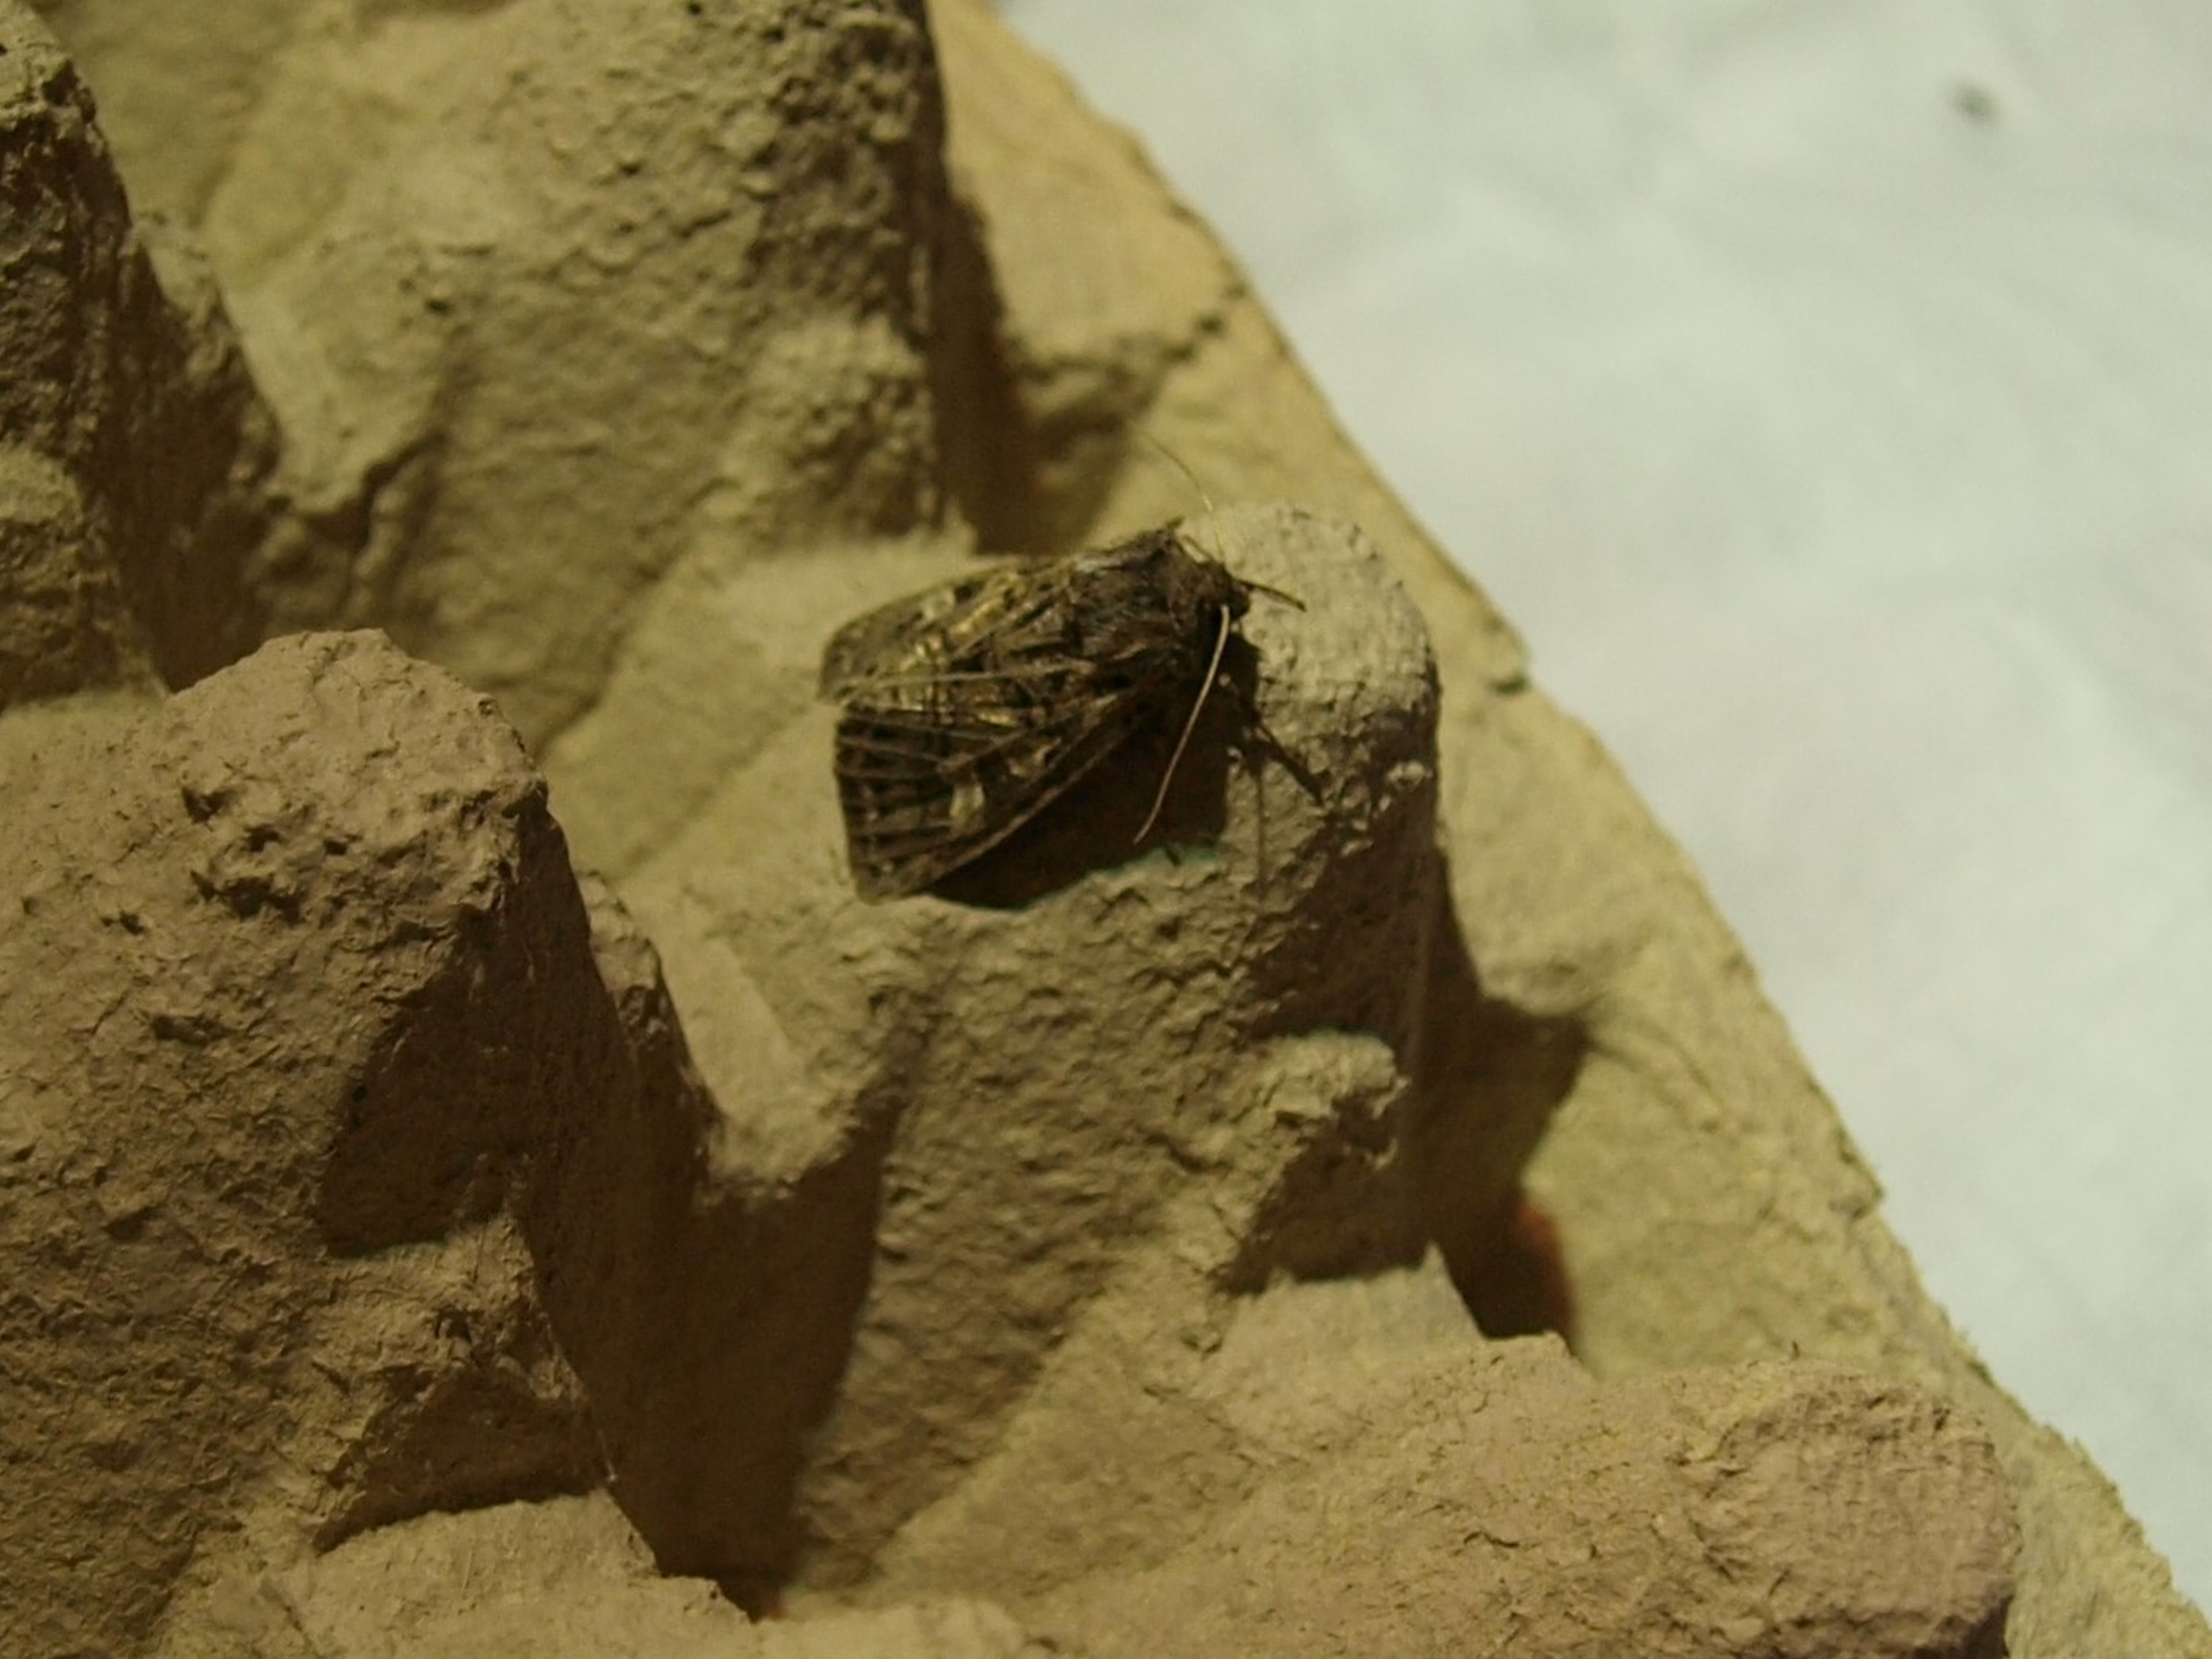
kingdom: Animalia
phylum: Arthropoda
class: Insecta
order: Lepidoptera
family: Noctuidae
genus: Tholera
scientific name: Tholera decimalis
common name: Hvidåret græsugle
